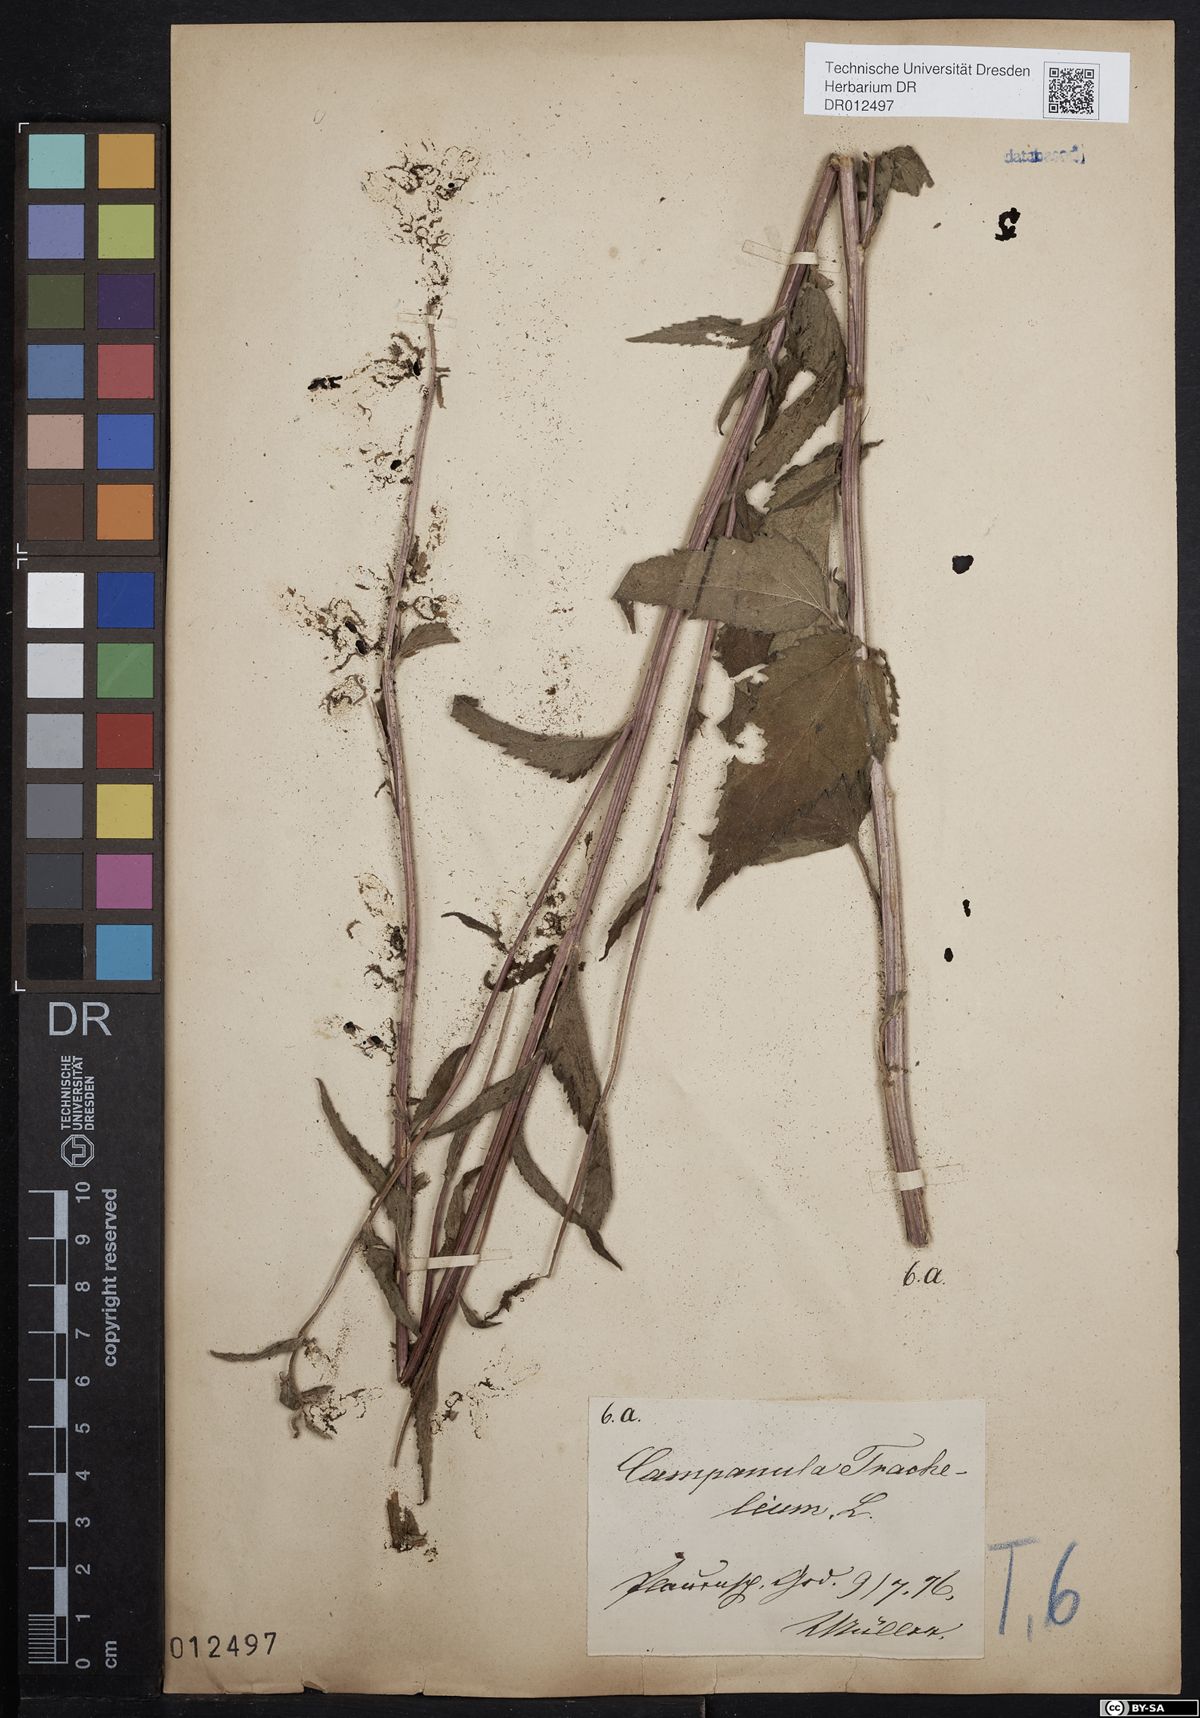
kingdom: Plantae
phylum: Tracheophyta
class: Magnoliopsida
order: Asterales
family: Campanulaceae
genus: Campanula
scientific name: Campanula trachelium
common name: Nettle-leaved bellflower
